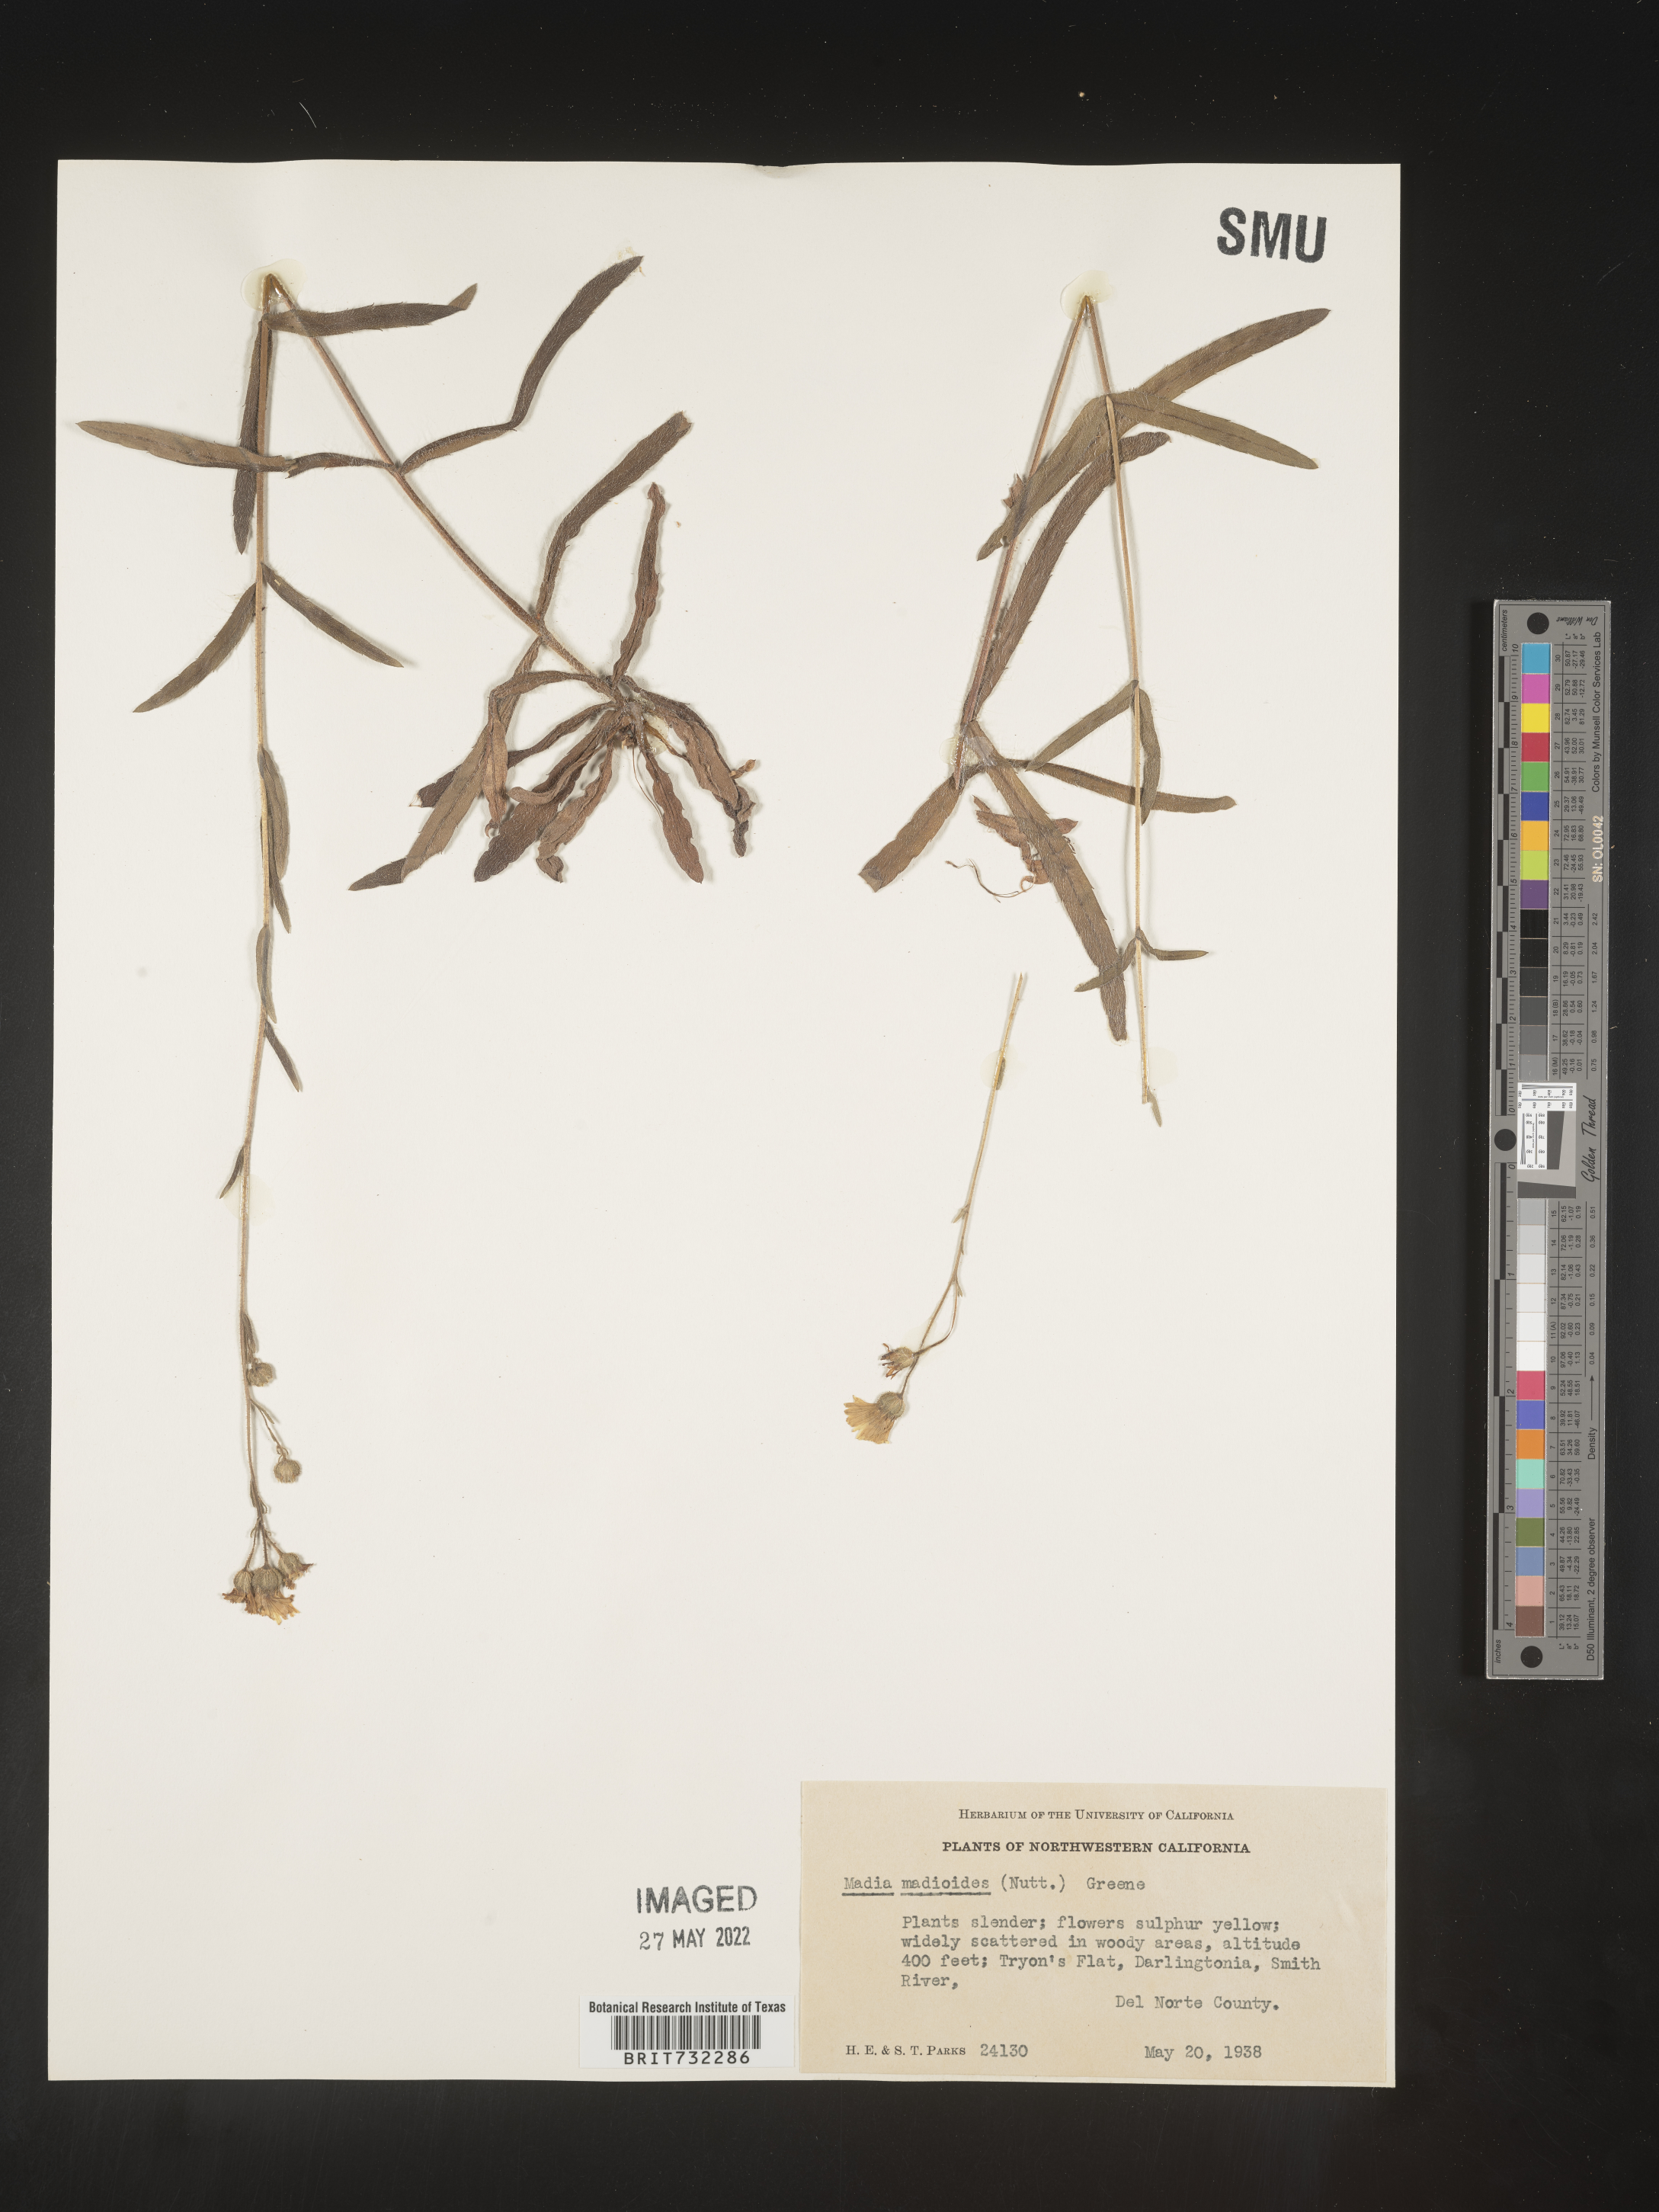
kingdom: Plantae
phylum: Tracheophyta
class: Magnoliopsida
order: Asterales
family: Asteraceae
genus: Madia
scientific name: Madia
